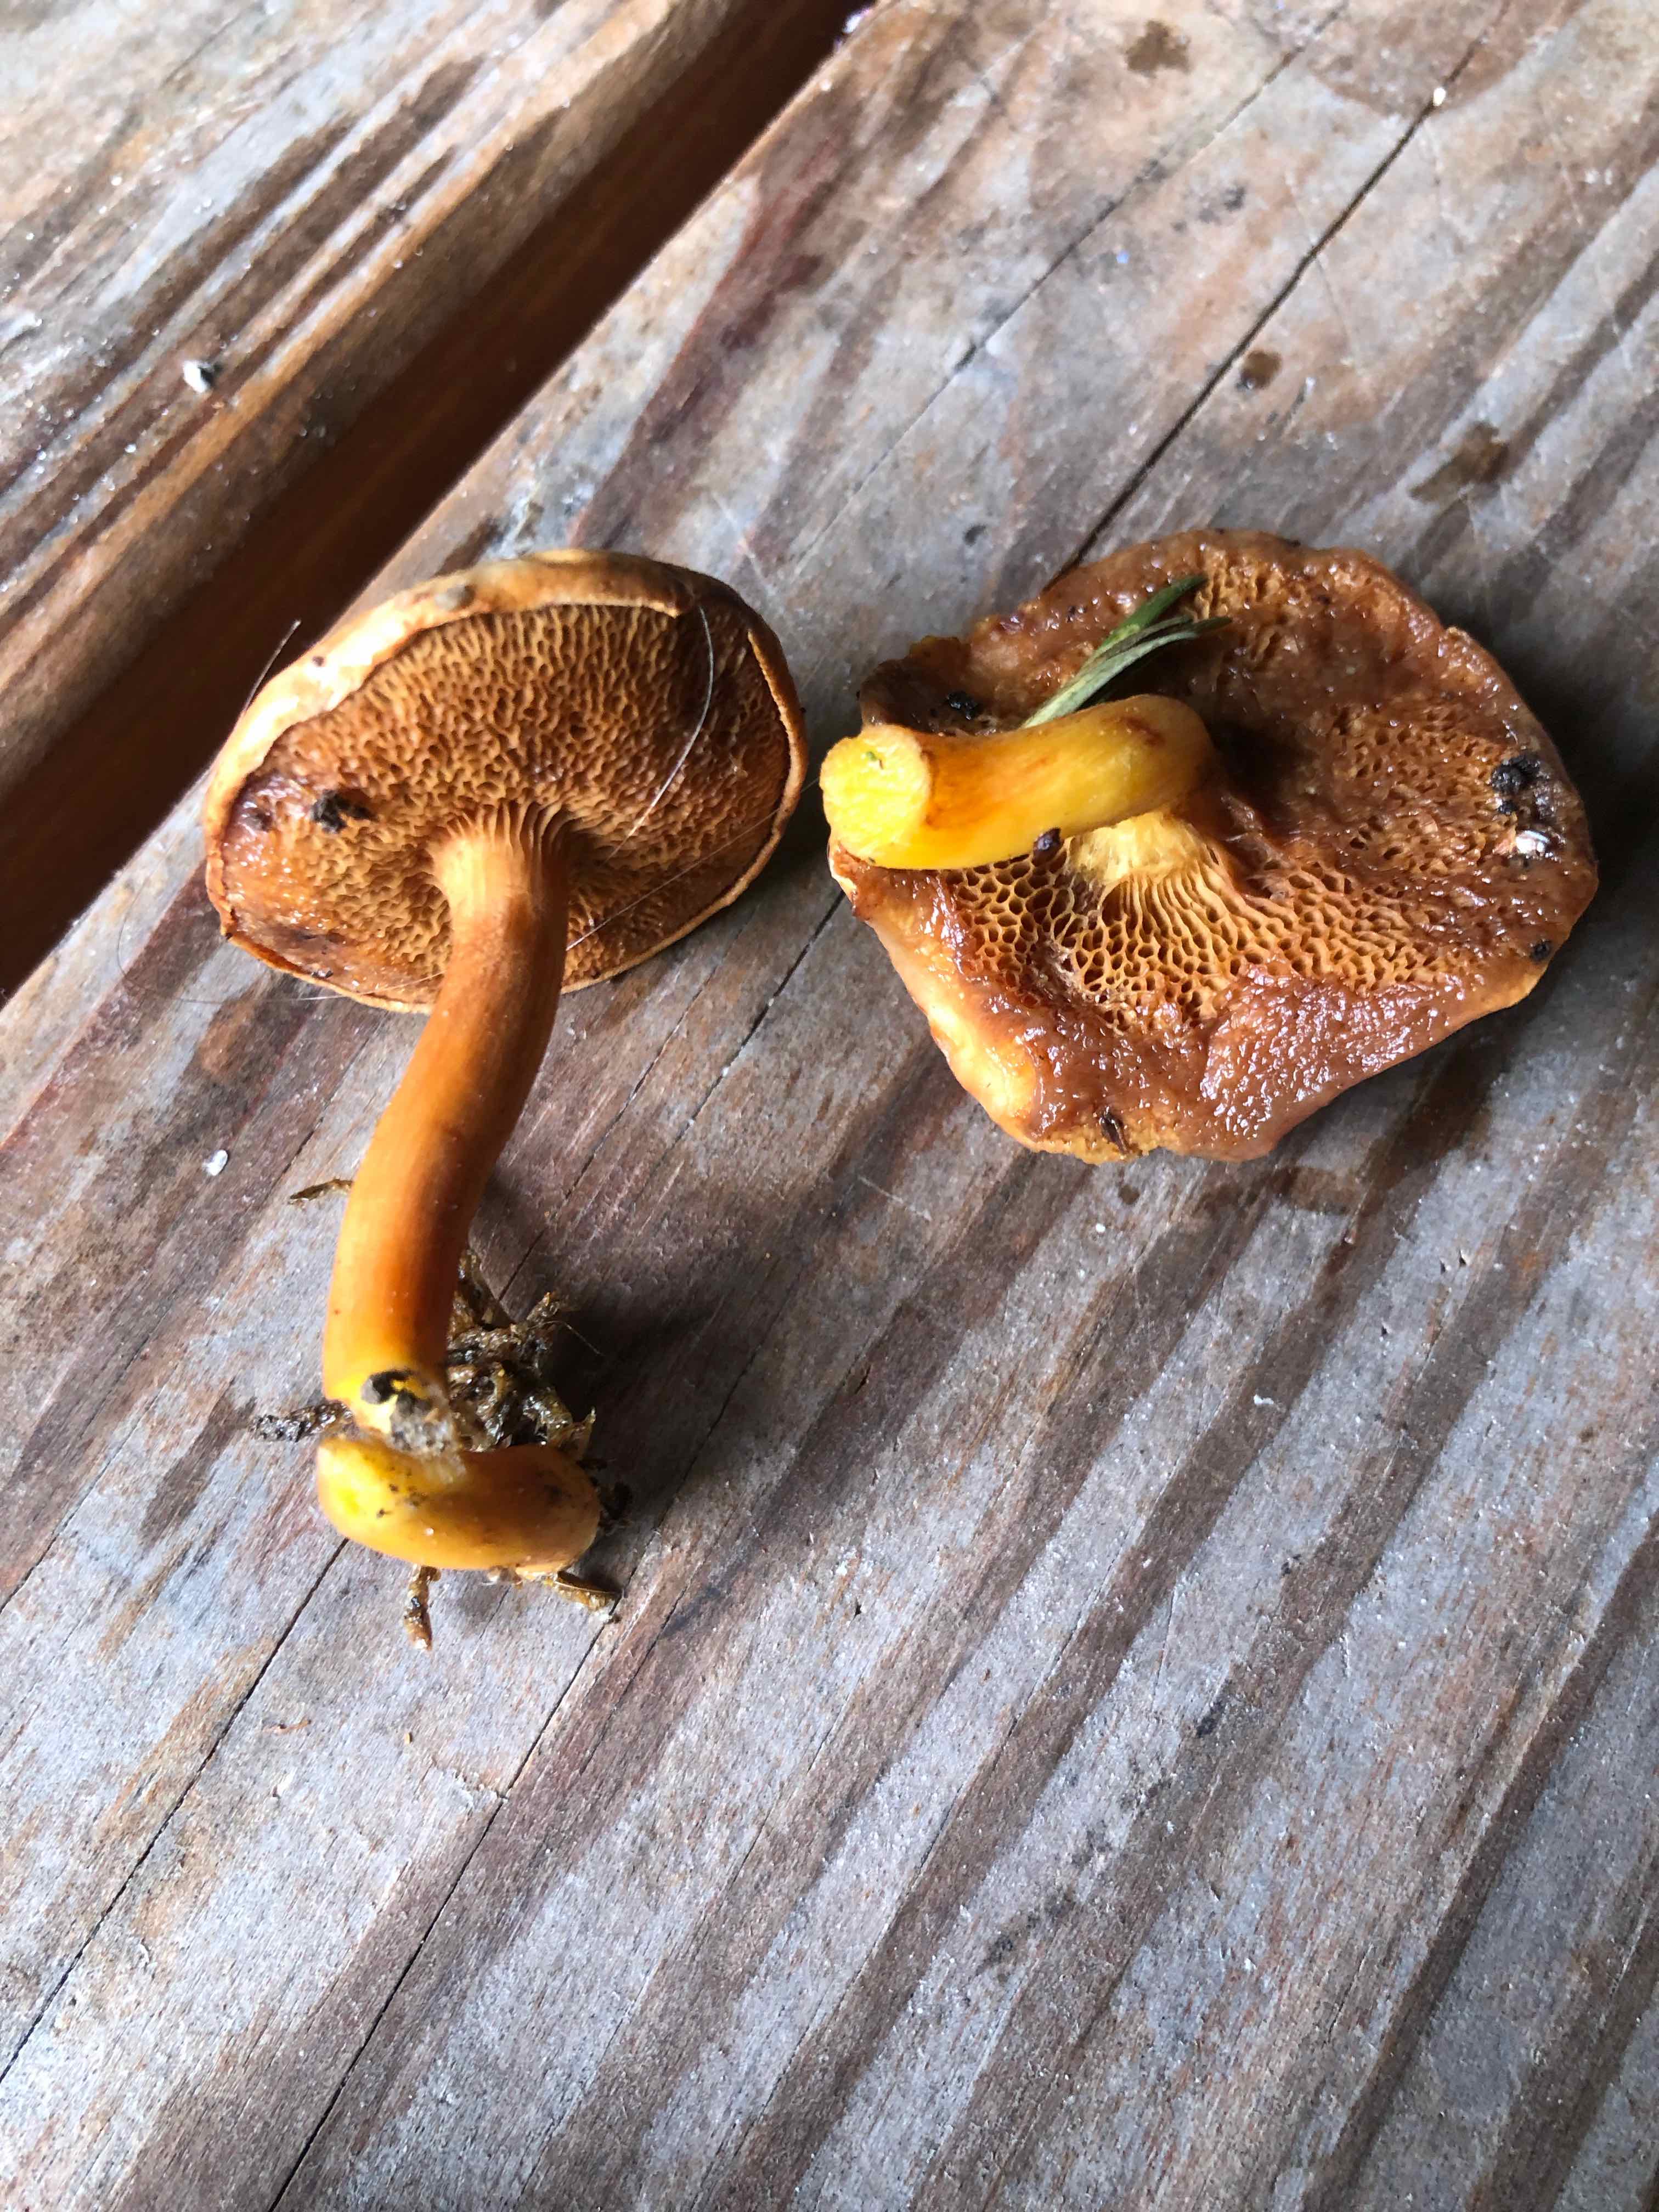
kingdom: Fungi
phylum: Basidiomycota
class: Agaricomycetes
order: Boletales
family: Boletaceae
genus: Chalciporus
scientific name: Chalciporus piperatus
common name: peberrørhat
